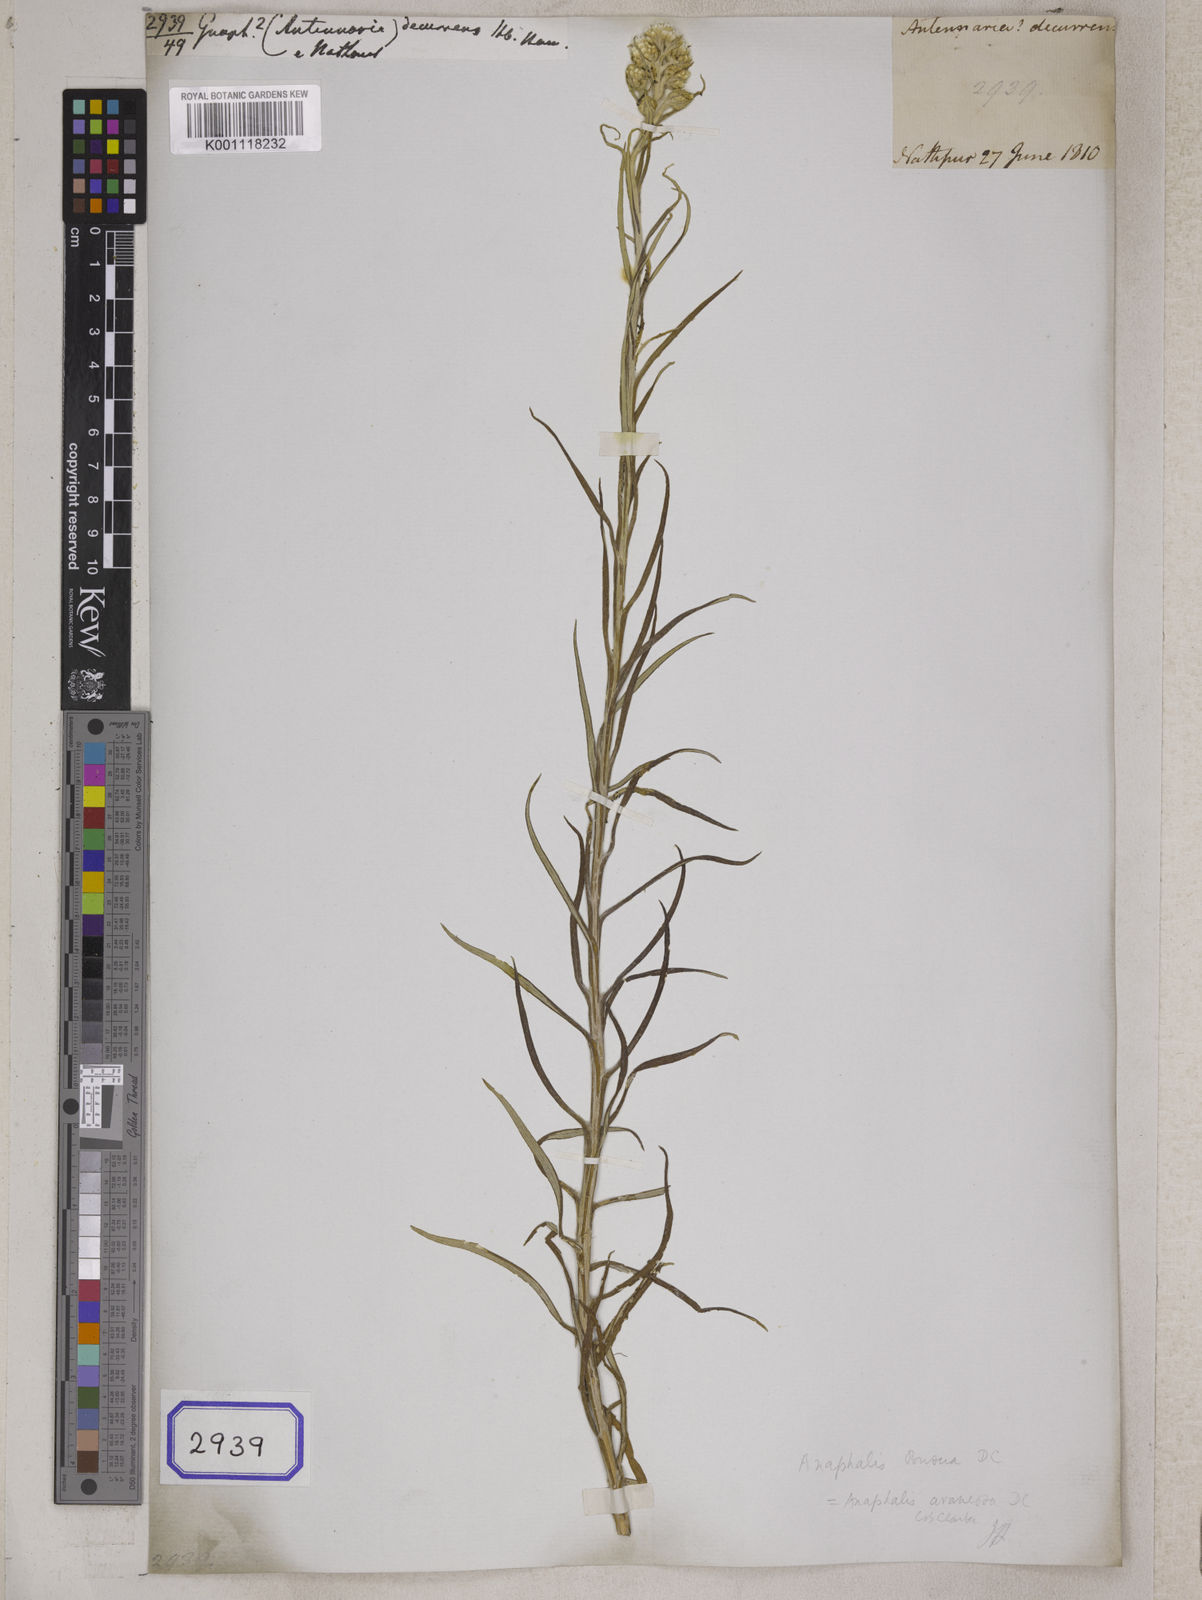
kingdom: Plantae
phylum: Tracheophyta
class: Magnoliopsida
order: Asterales
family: Asteraceae
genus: Anaphalis
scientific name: Anaphalis busua
